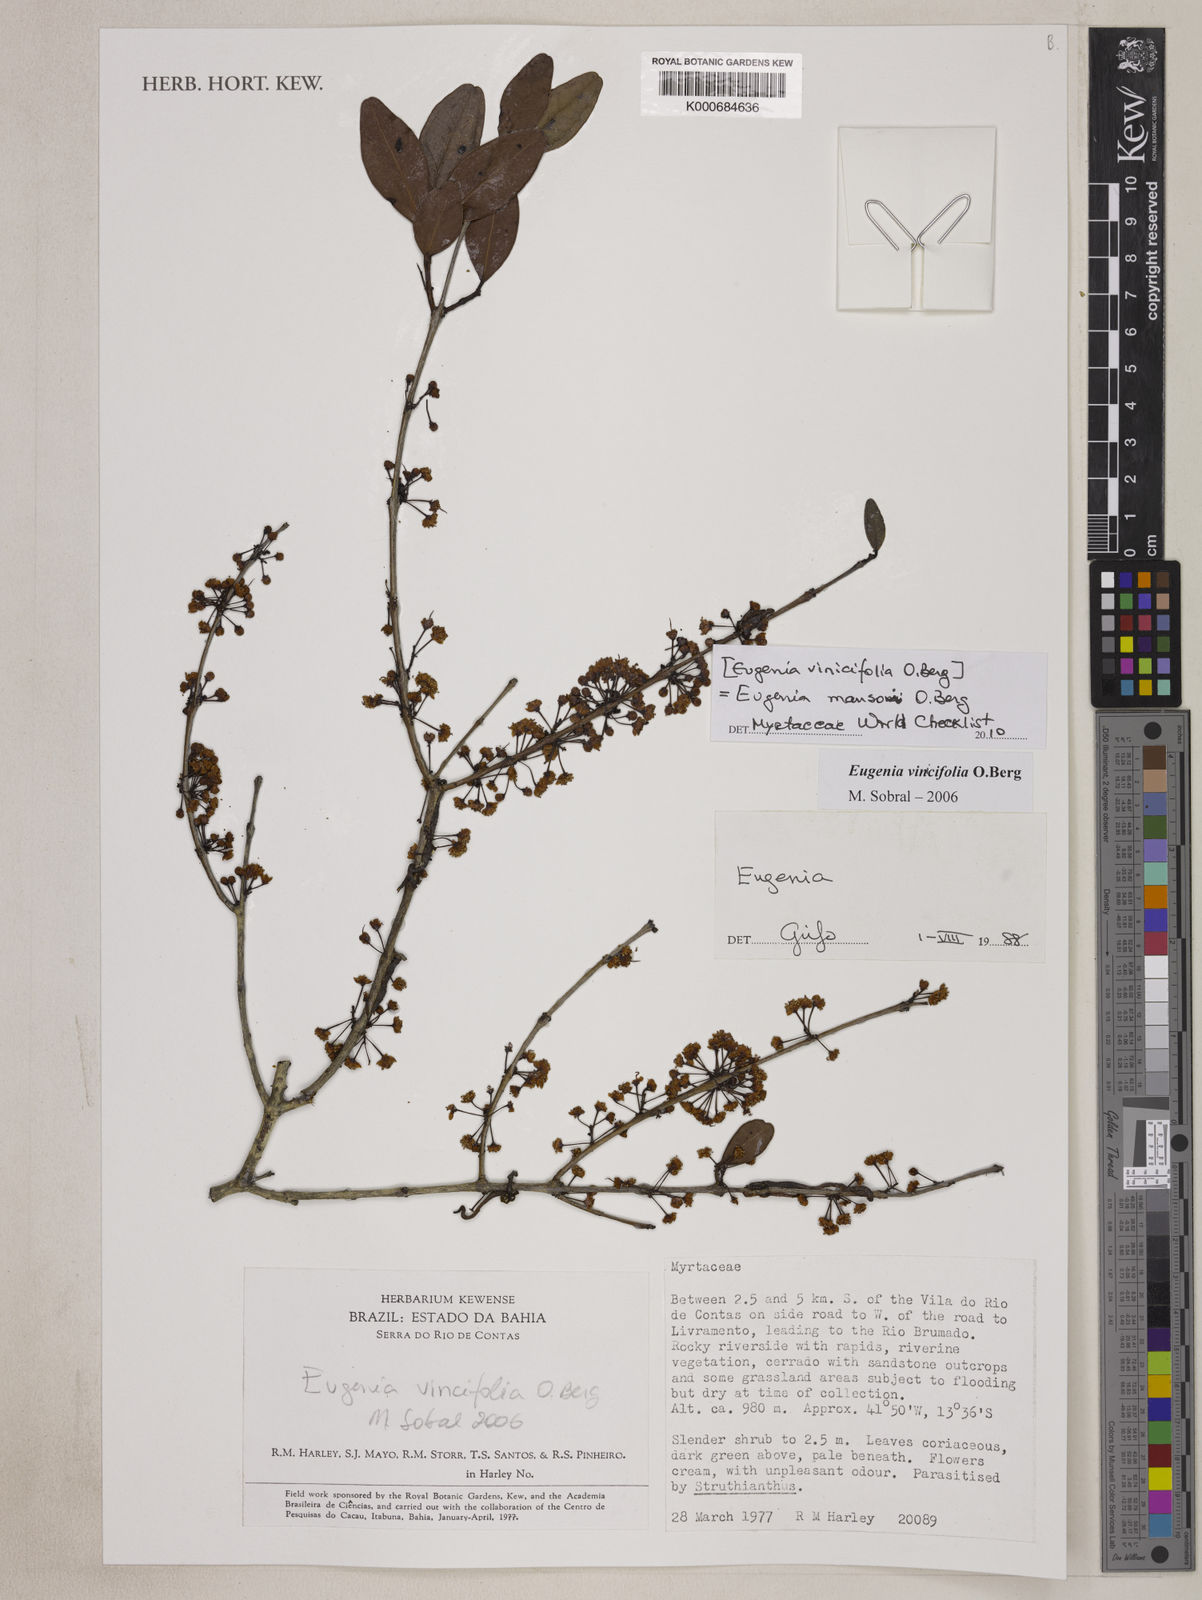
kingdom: Plantae
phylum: Tracheophyta
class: Magnoliopsida
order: Myrtales
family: Myrtaceae
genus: Eugenia
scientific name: Eugenia mansoi
